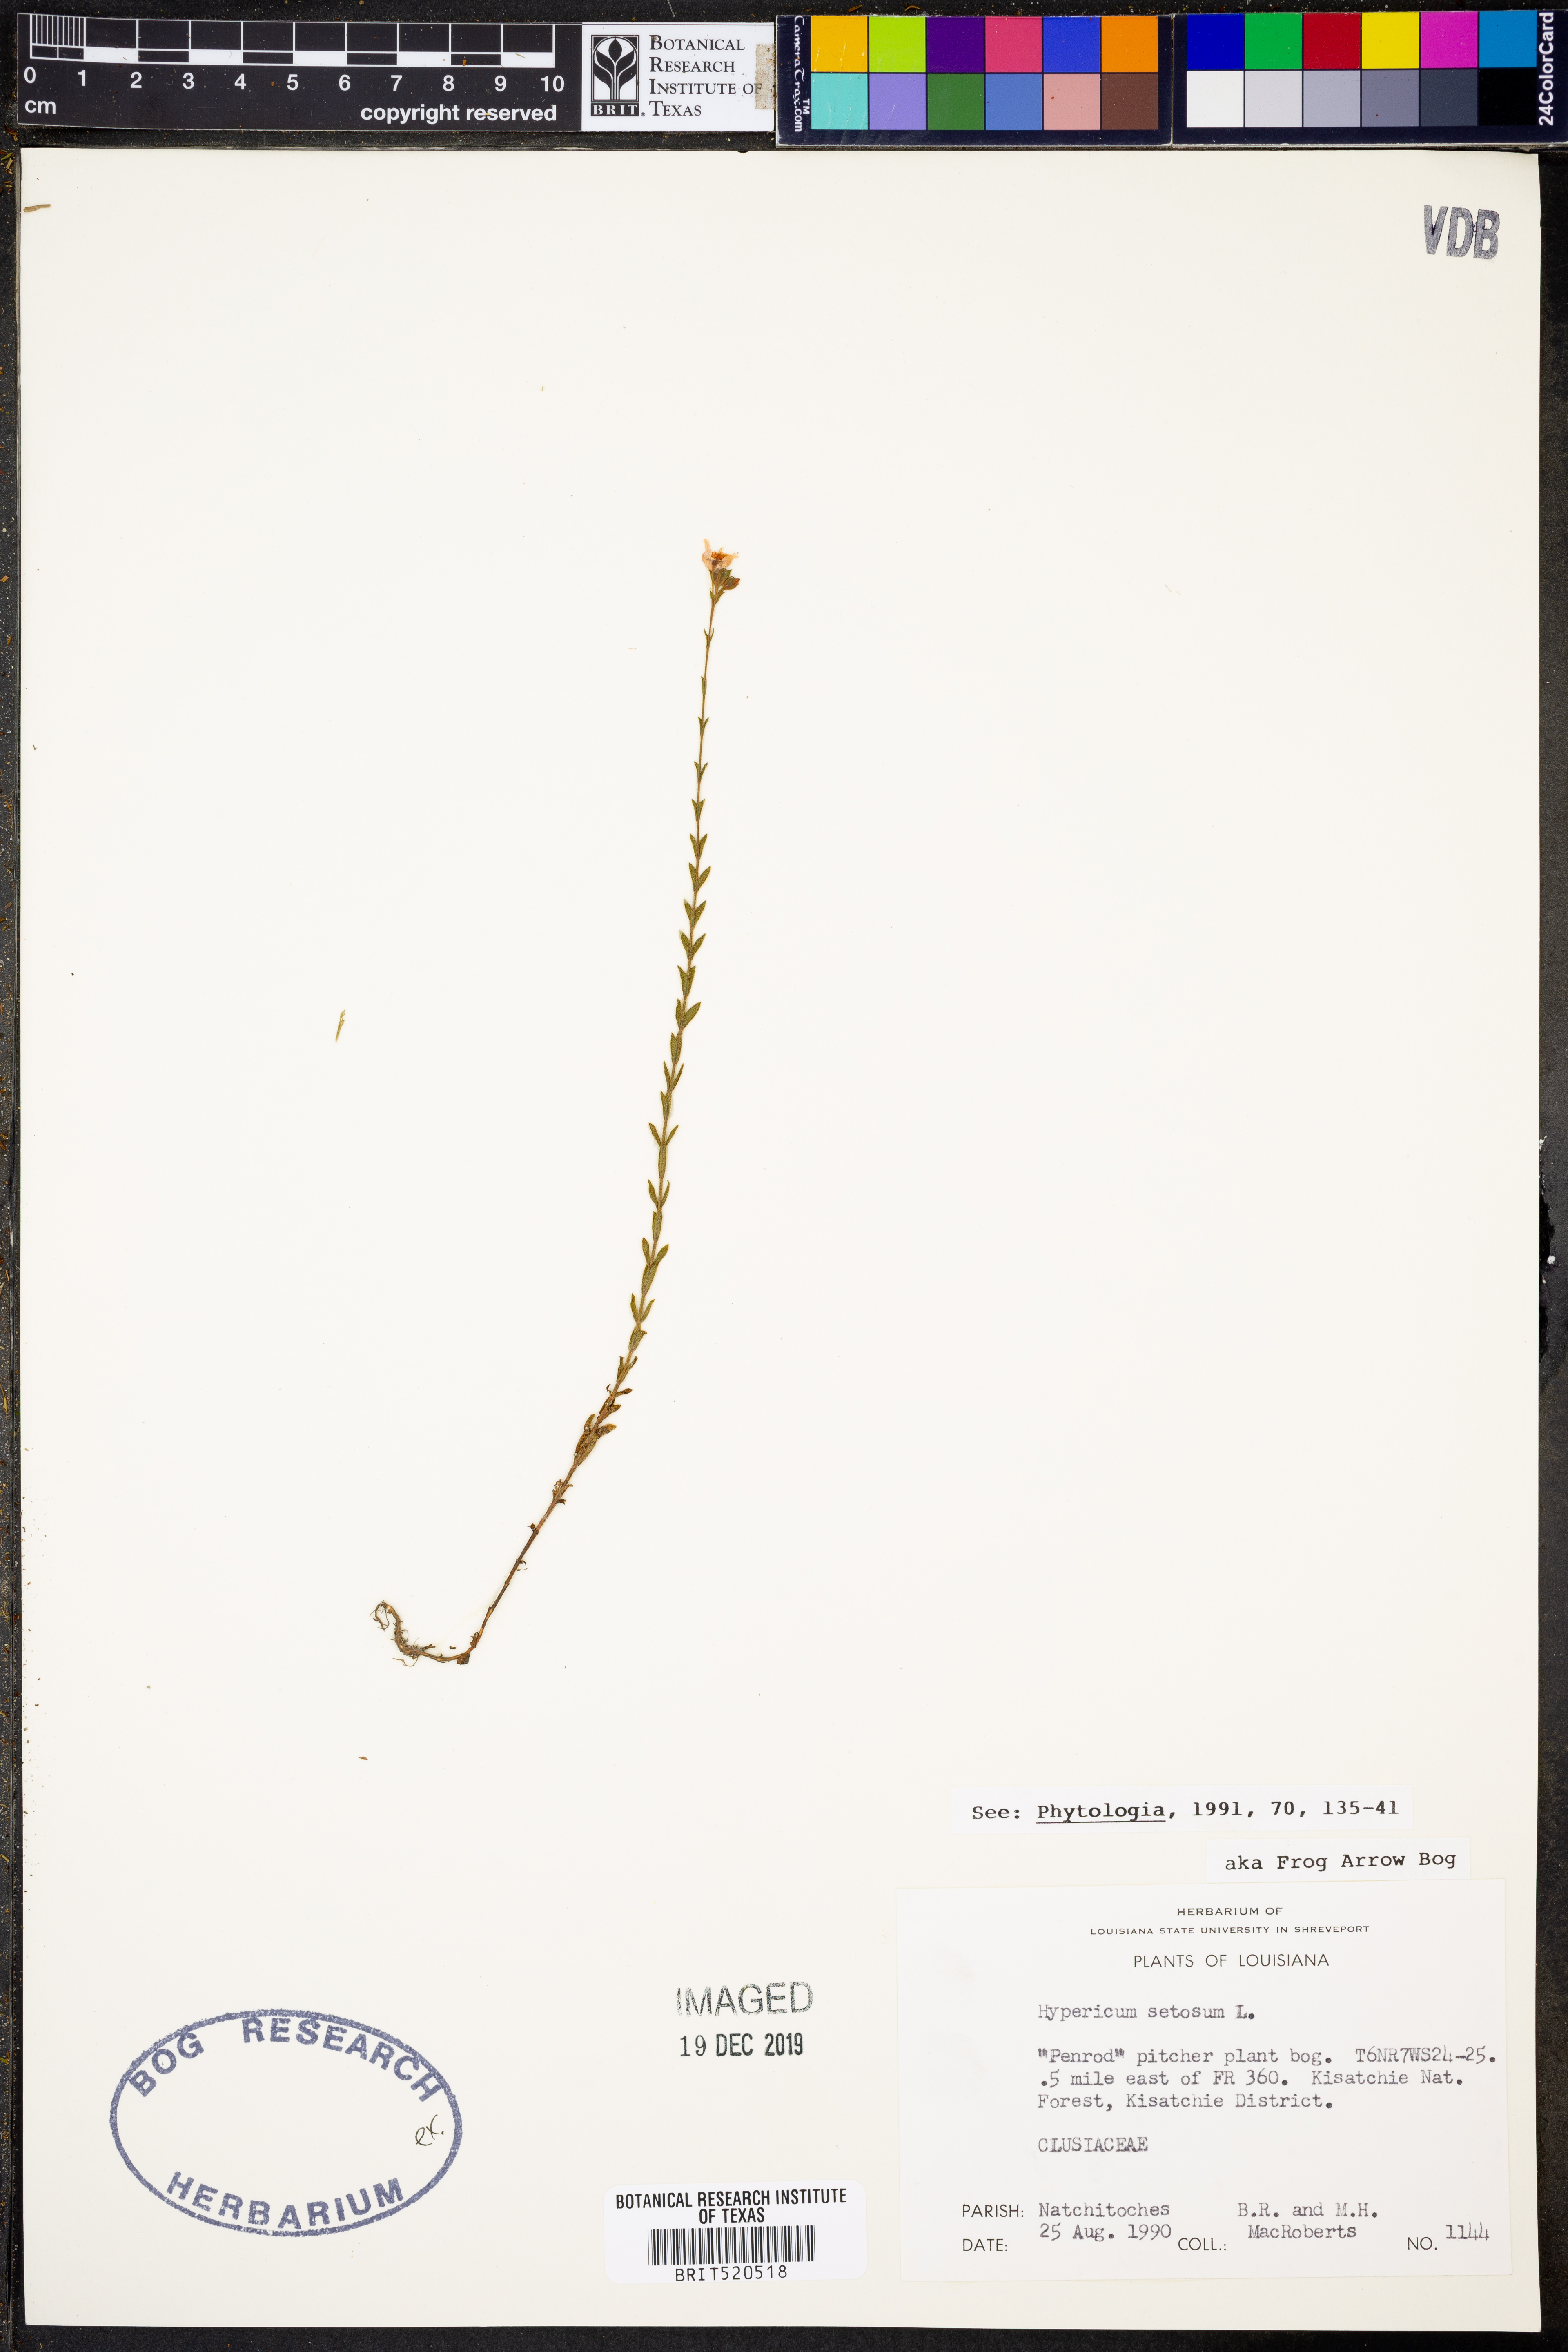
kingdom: Plantae
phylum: Tracheophyta
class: Magnoliopsida
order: Malpighiales
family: Hypericaceae
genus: Hypericum
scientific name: Hypericum setosum
